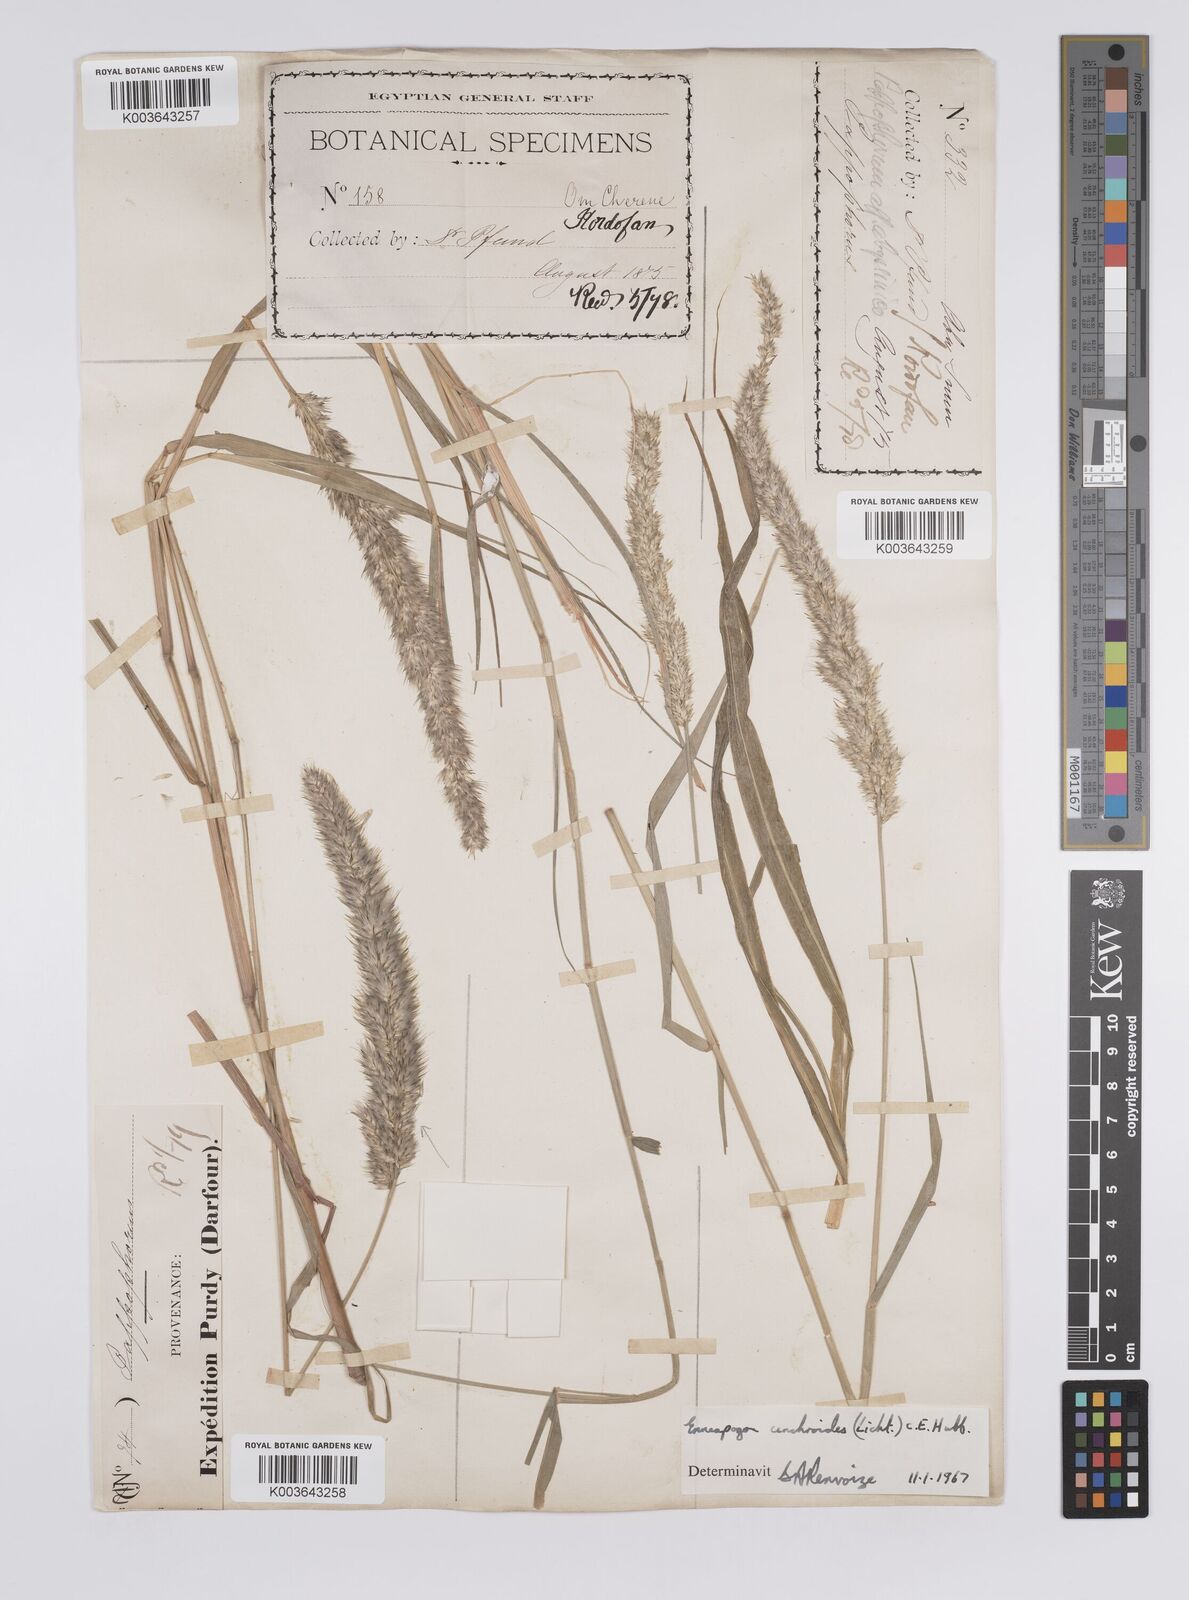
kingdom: Plantae
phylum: Tracheophyta
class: Liliopsida
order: Poales
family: Poaceae
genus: Enneapogon
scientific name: Enneapogon cenchroides
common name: Soft feather pappusgrass
